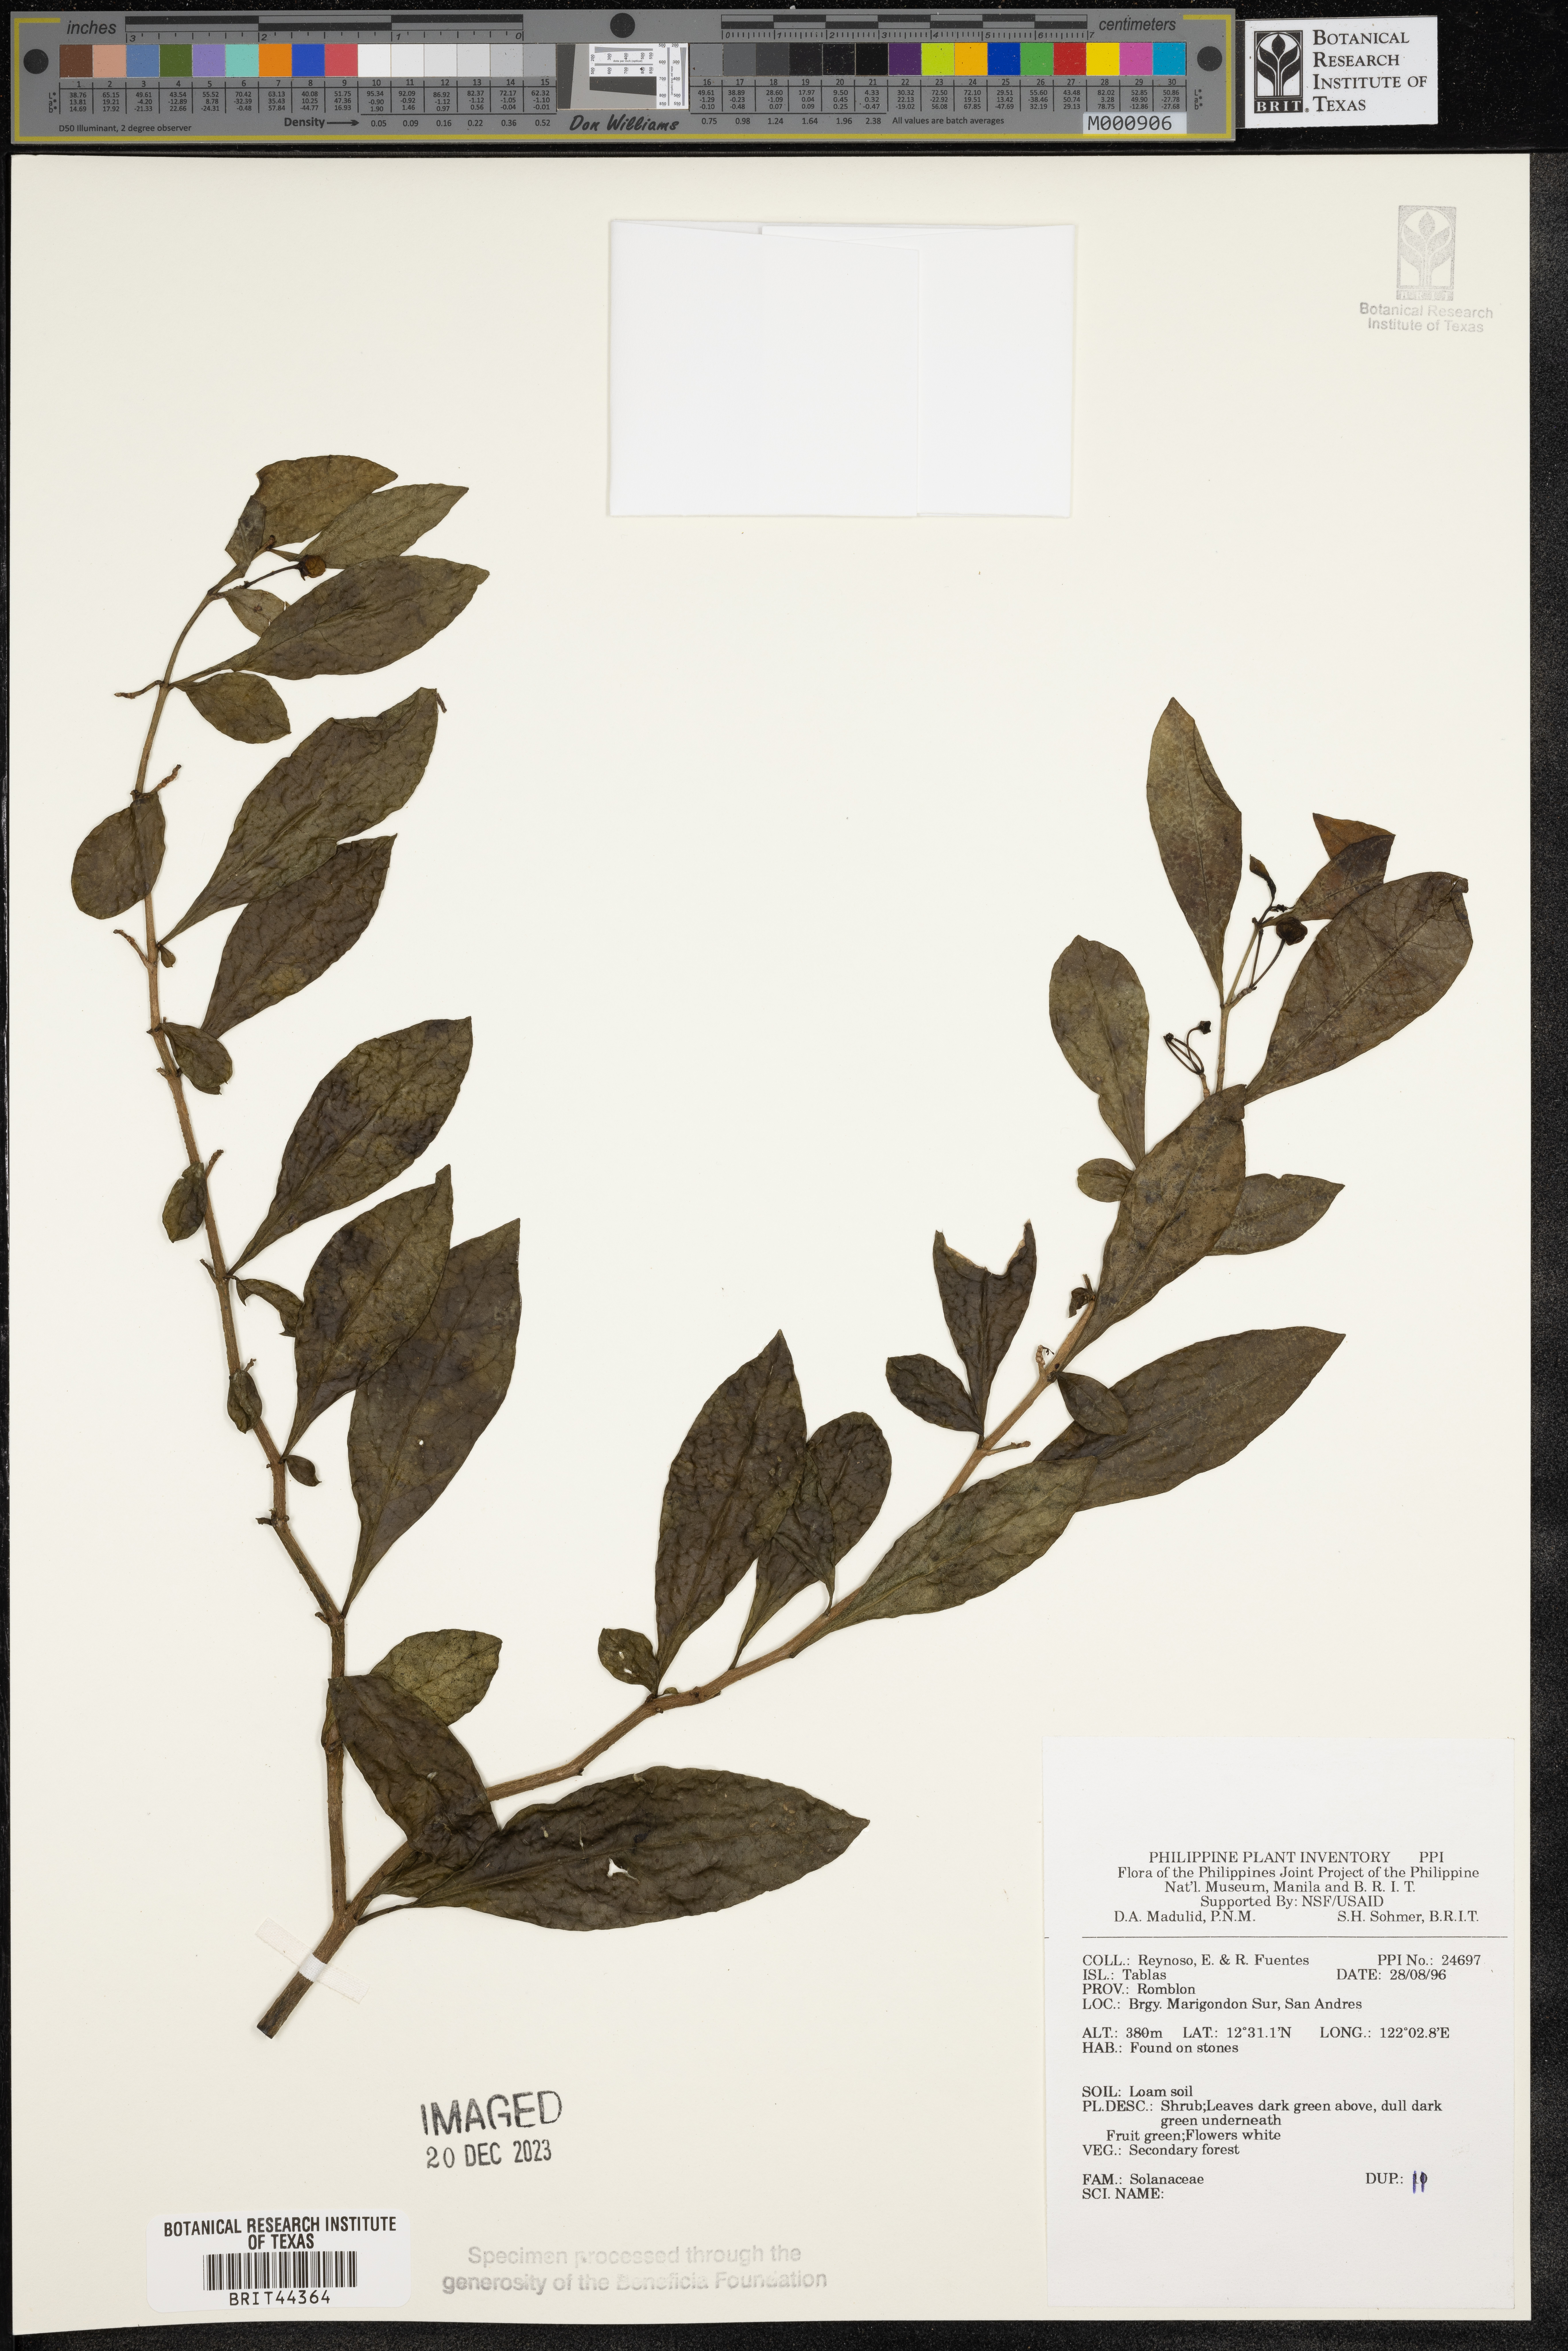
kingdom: Plantae
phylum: Tracheophyta
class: Magnoliopsida
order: Solanales
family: Solanaceae
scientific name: Solanaceae
